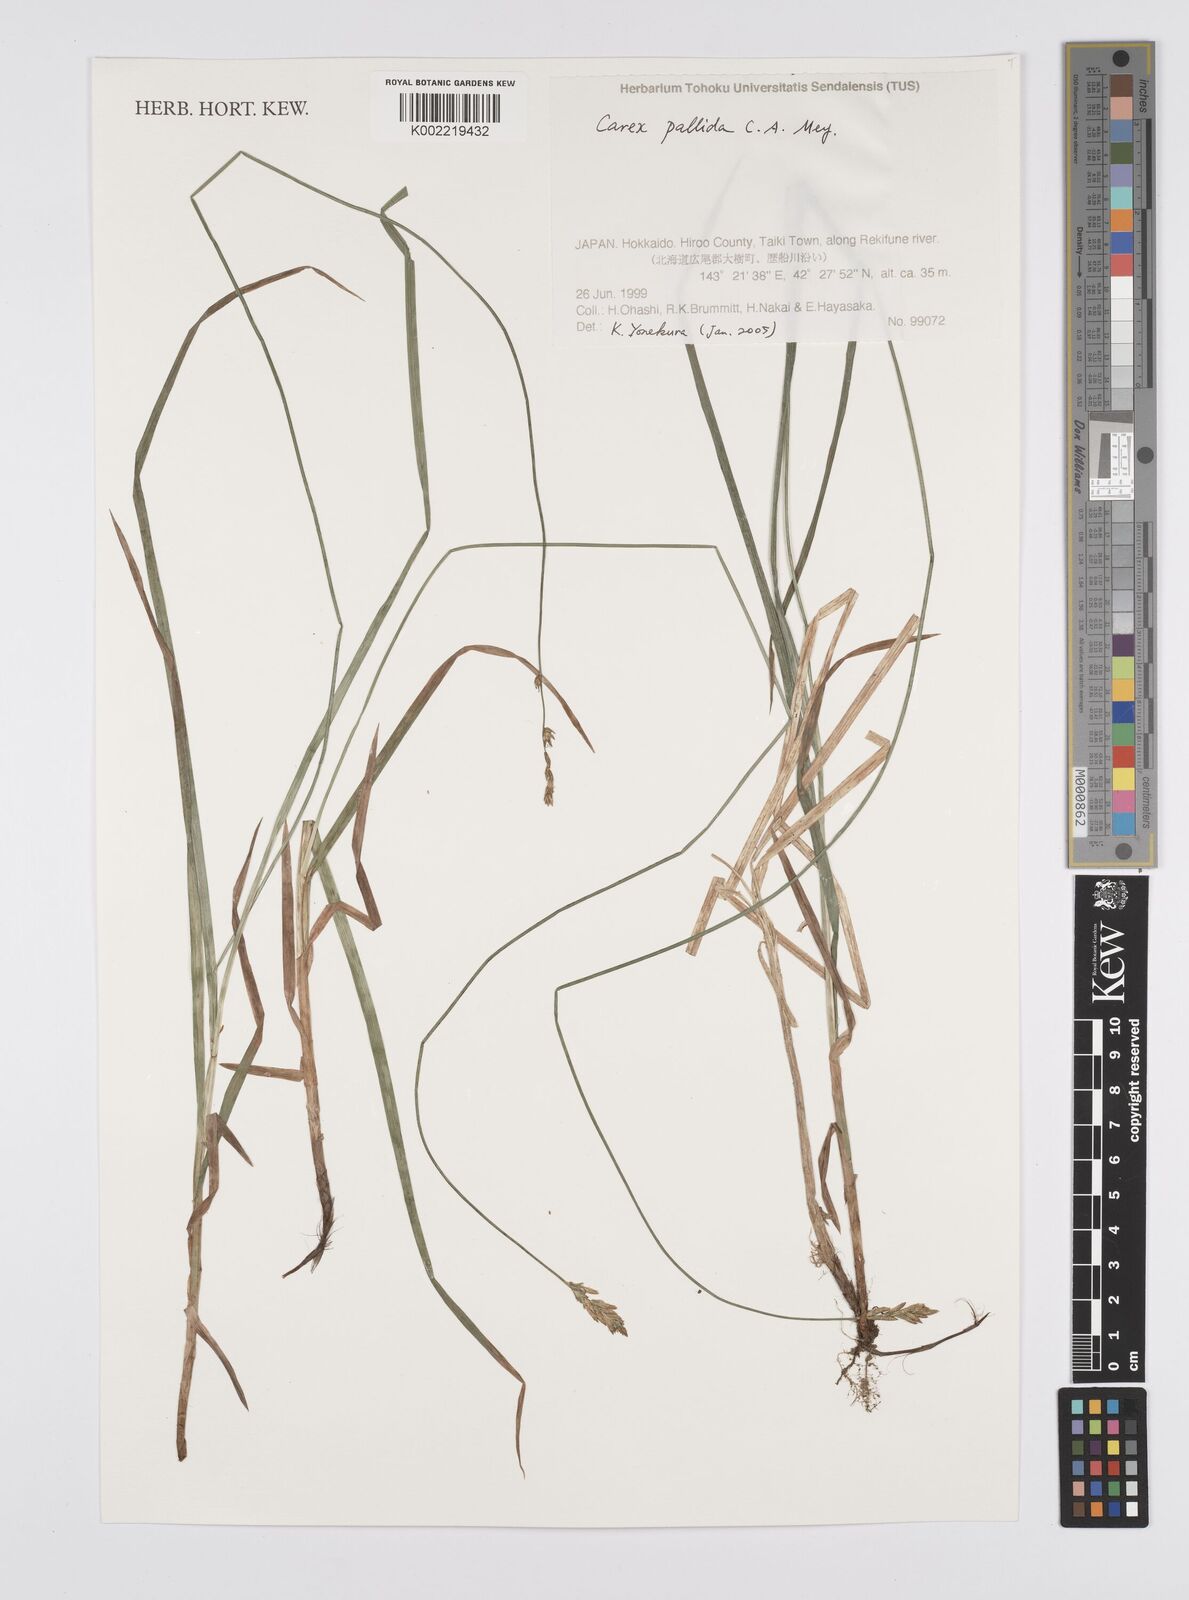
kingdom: Plantae
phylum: Tracheophyta
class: Liliopsida
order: Poales
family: Cyperaceae
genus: Carex
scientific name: Carex accrescens
